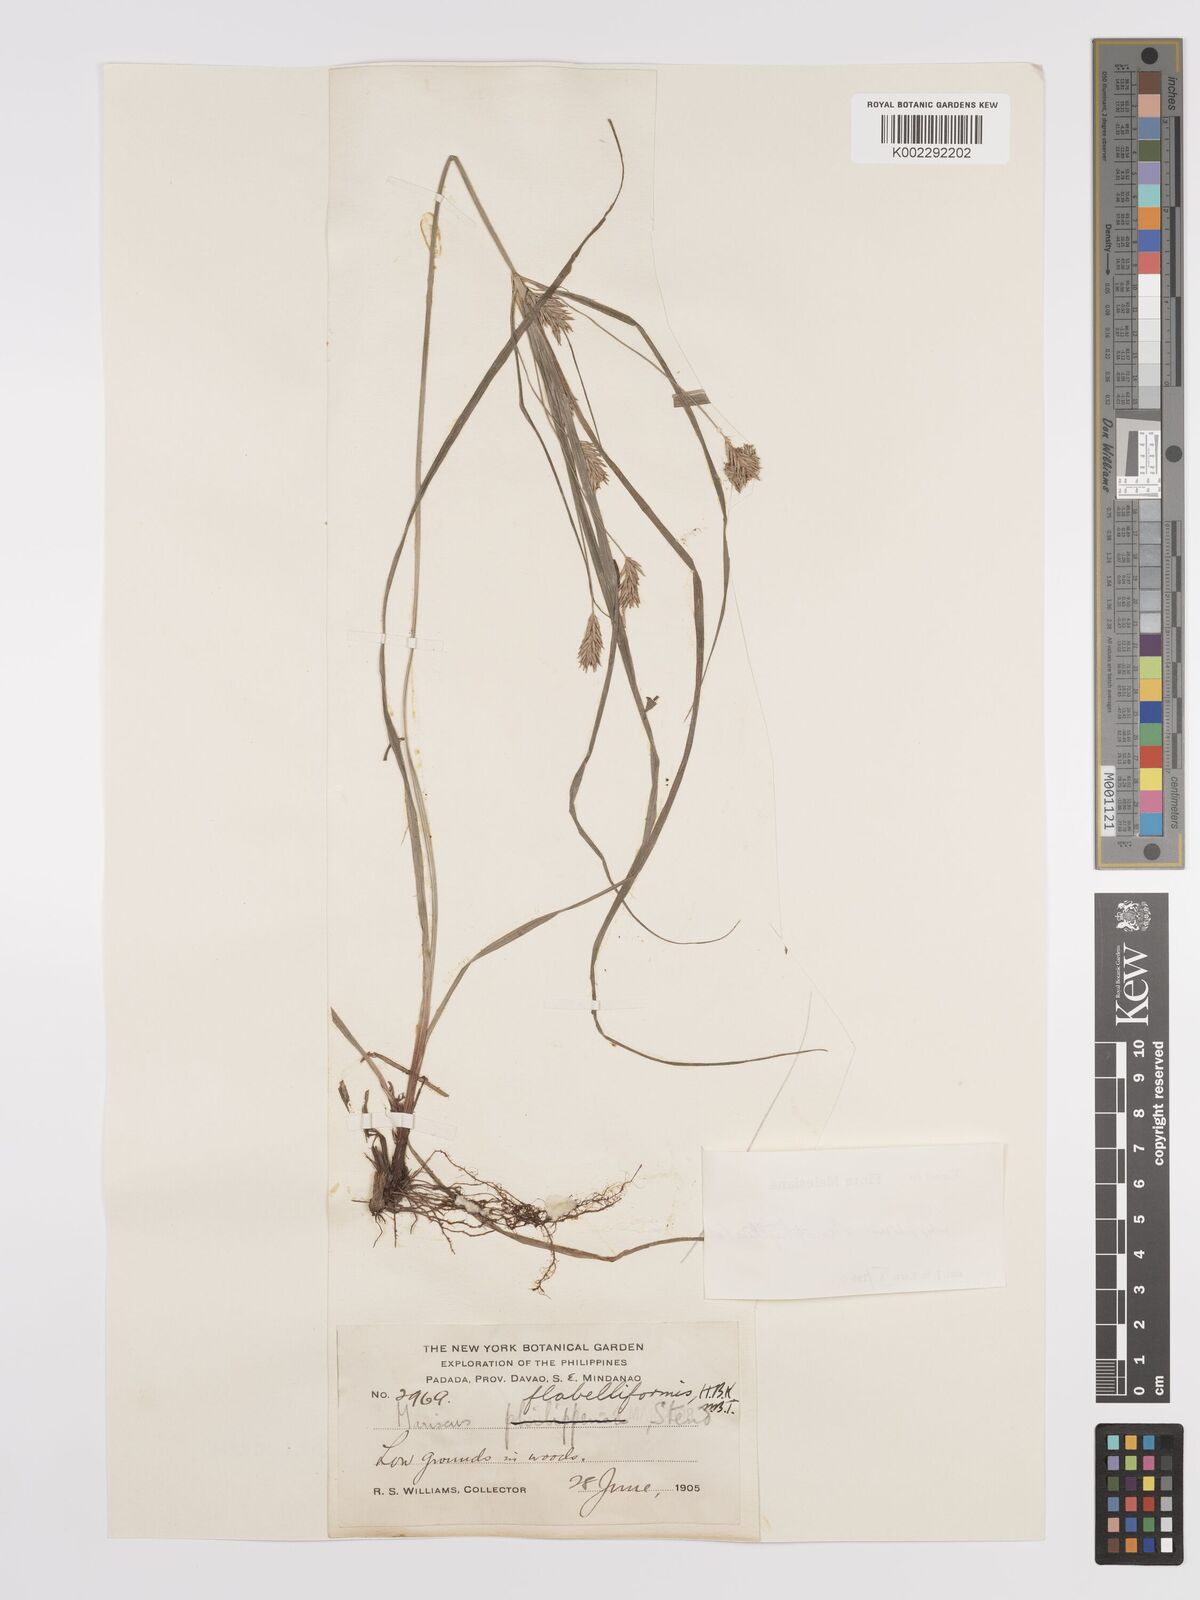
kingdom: Plantae
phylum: Tracheophyta
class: Liliopsida
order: Poales
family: Cyperaceae
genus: Cyperus
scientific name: Cyperus stenophyllus
